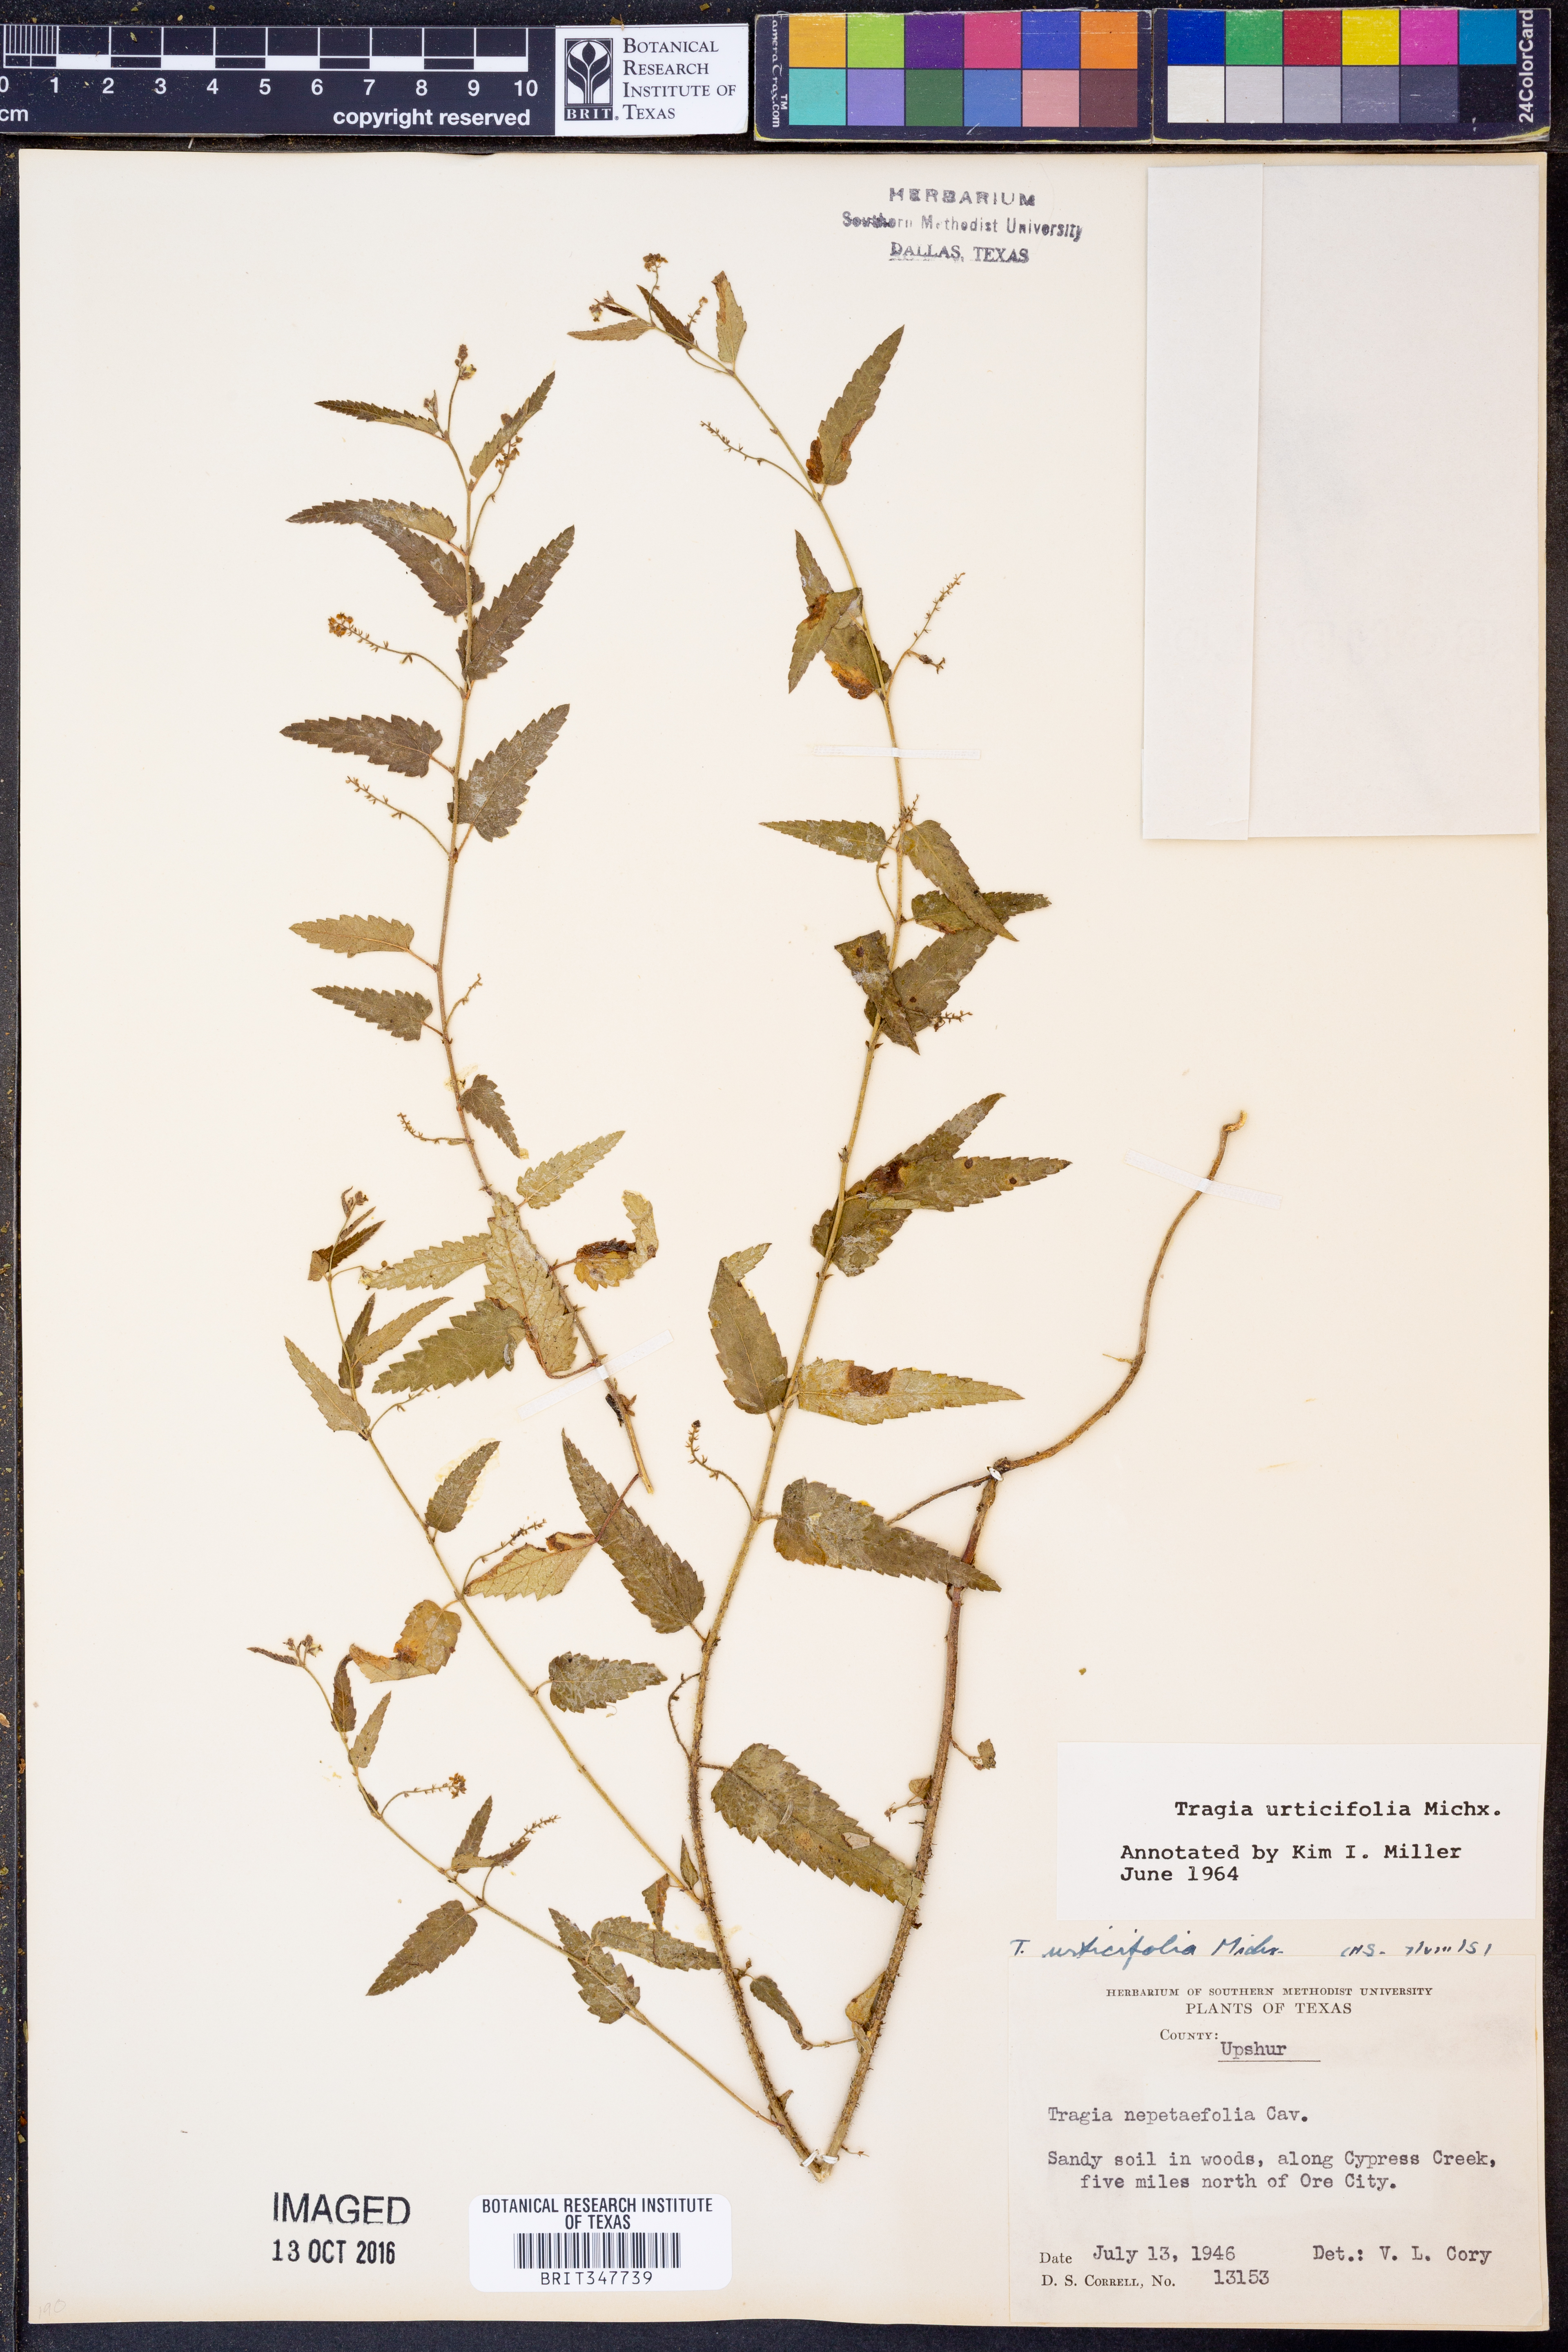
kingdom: Plantae
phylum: Tracheophyta
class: Magnoliopsida
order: Malpighiales
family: Euphorbiaceae
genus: Tragia
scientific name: Tragia urticifolia
